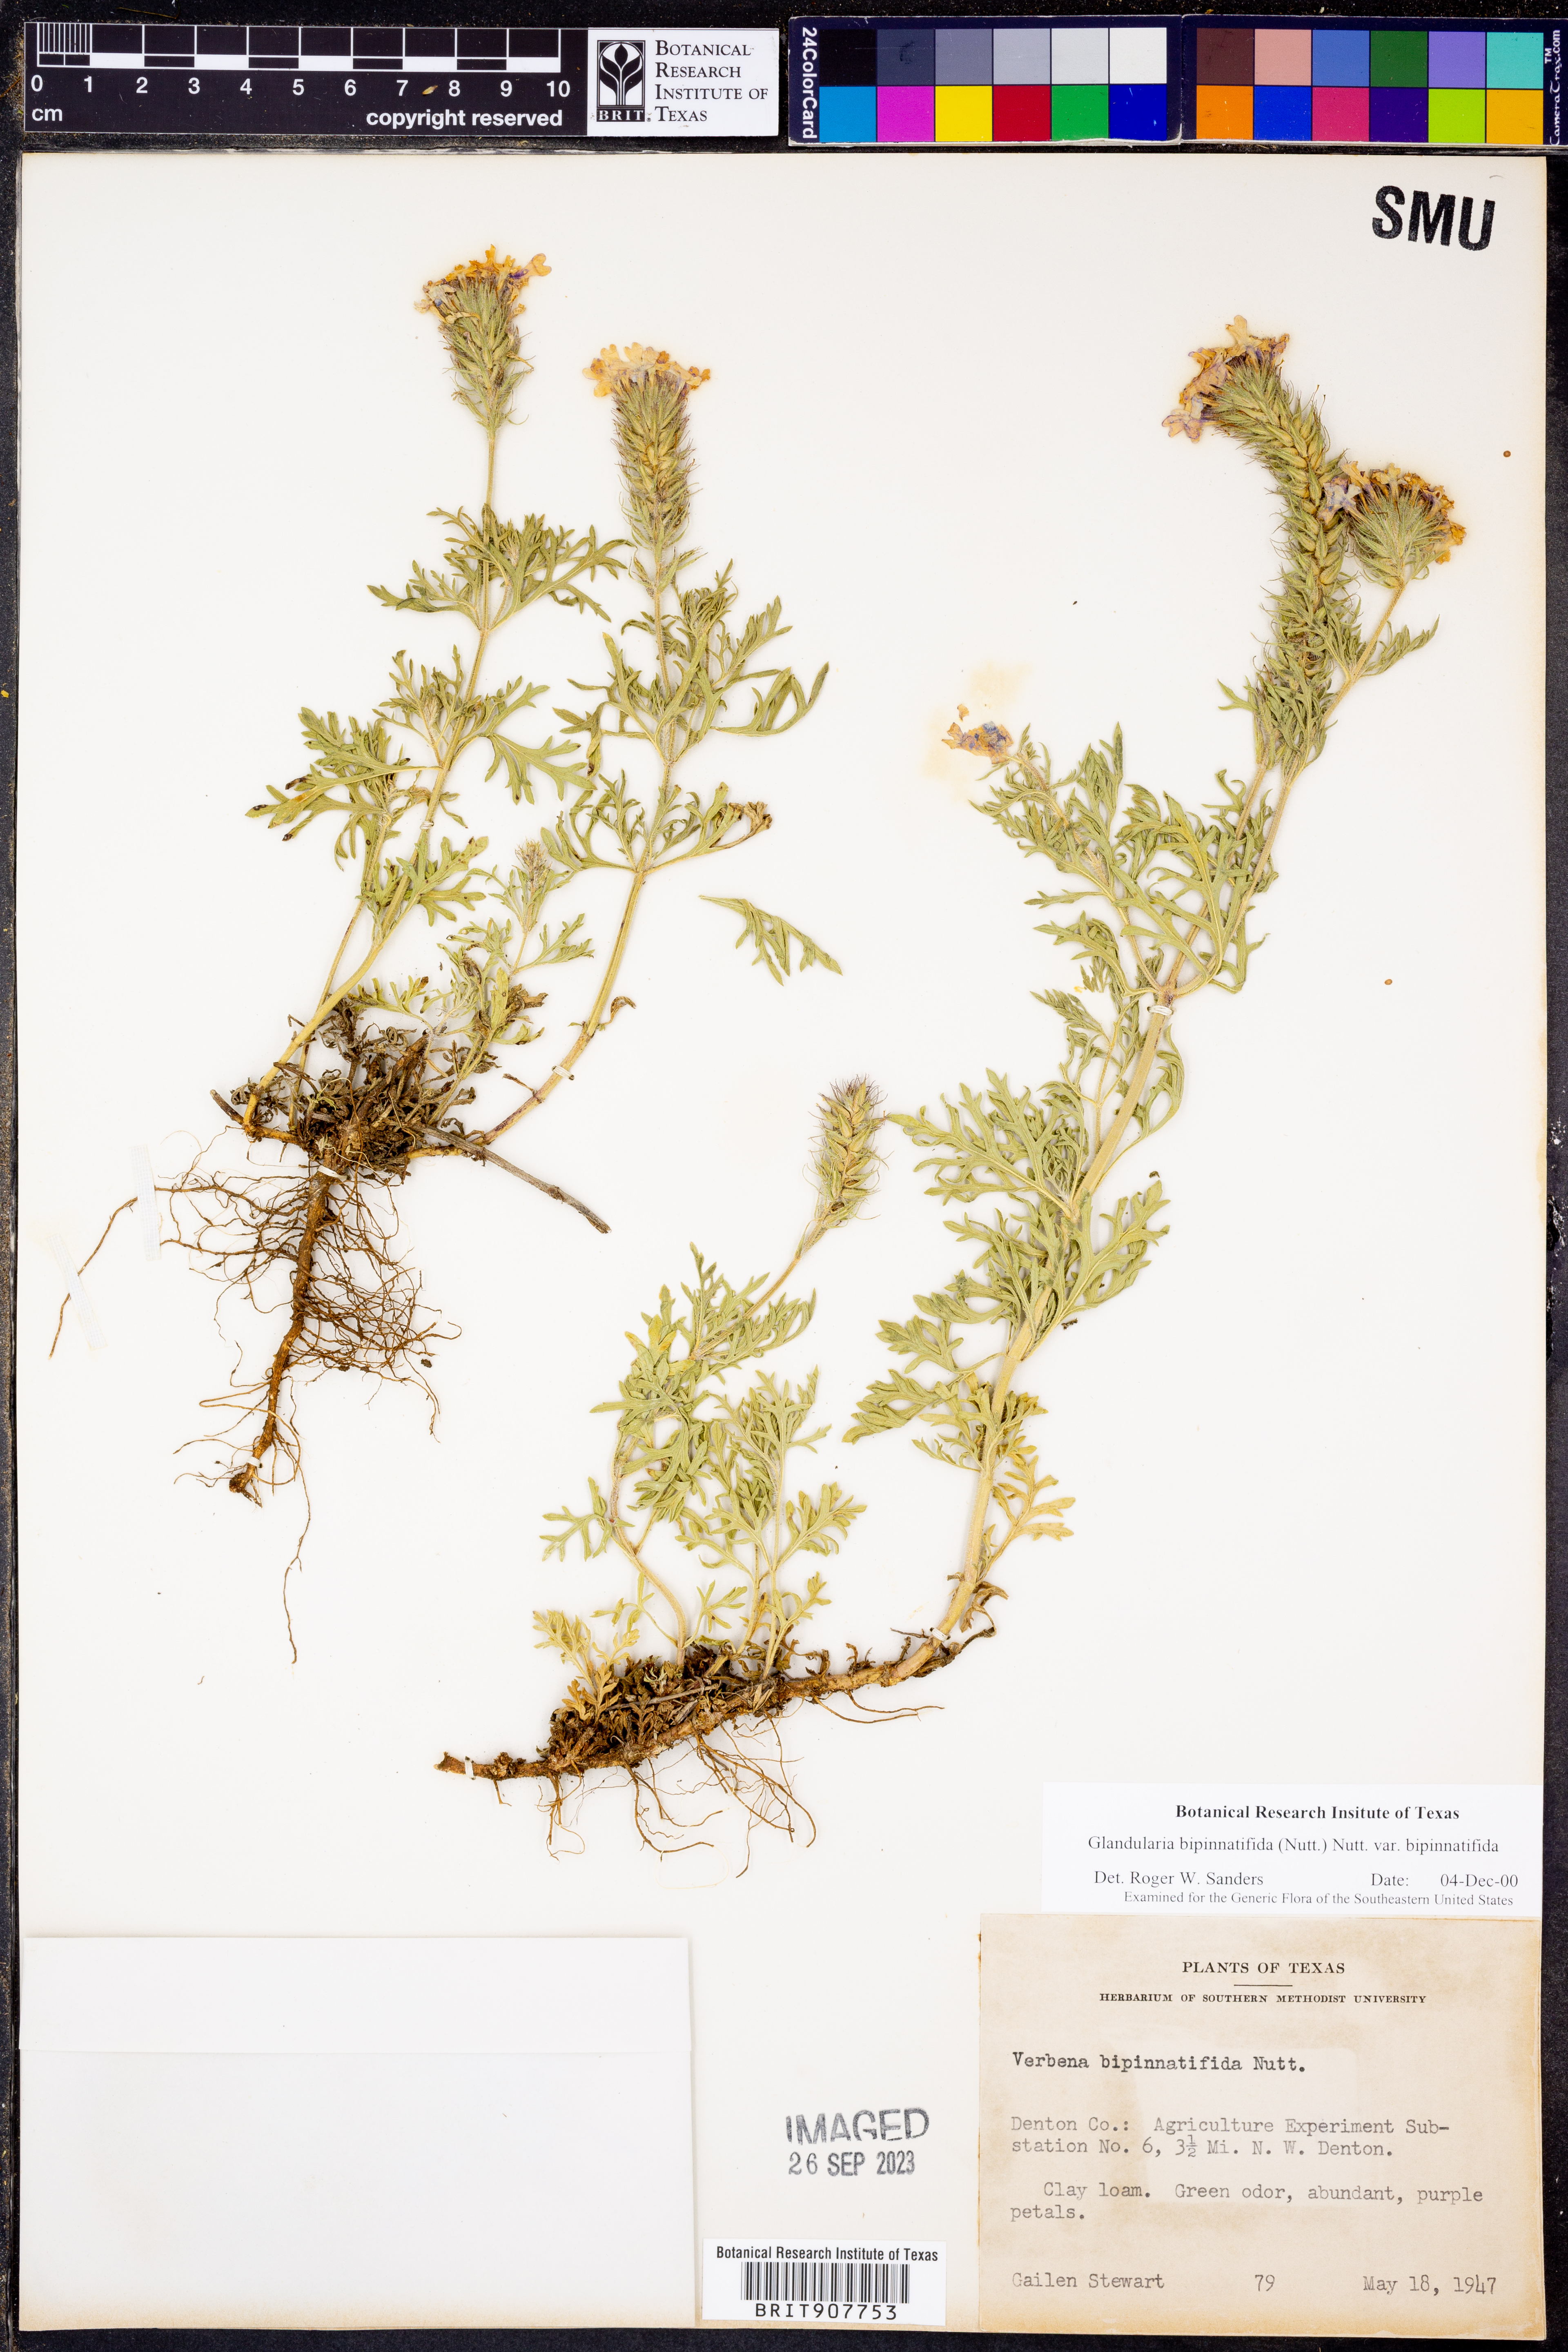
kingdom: Plantae
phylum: Tracheophyta
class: Magnoliopsida
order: Lamiales
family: Verbenaceae
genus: Verbena
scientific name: Verbena bipinnatifida
